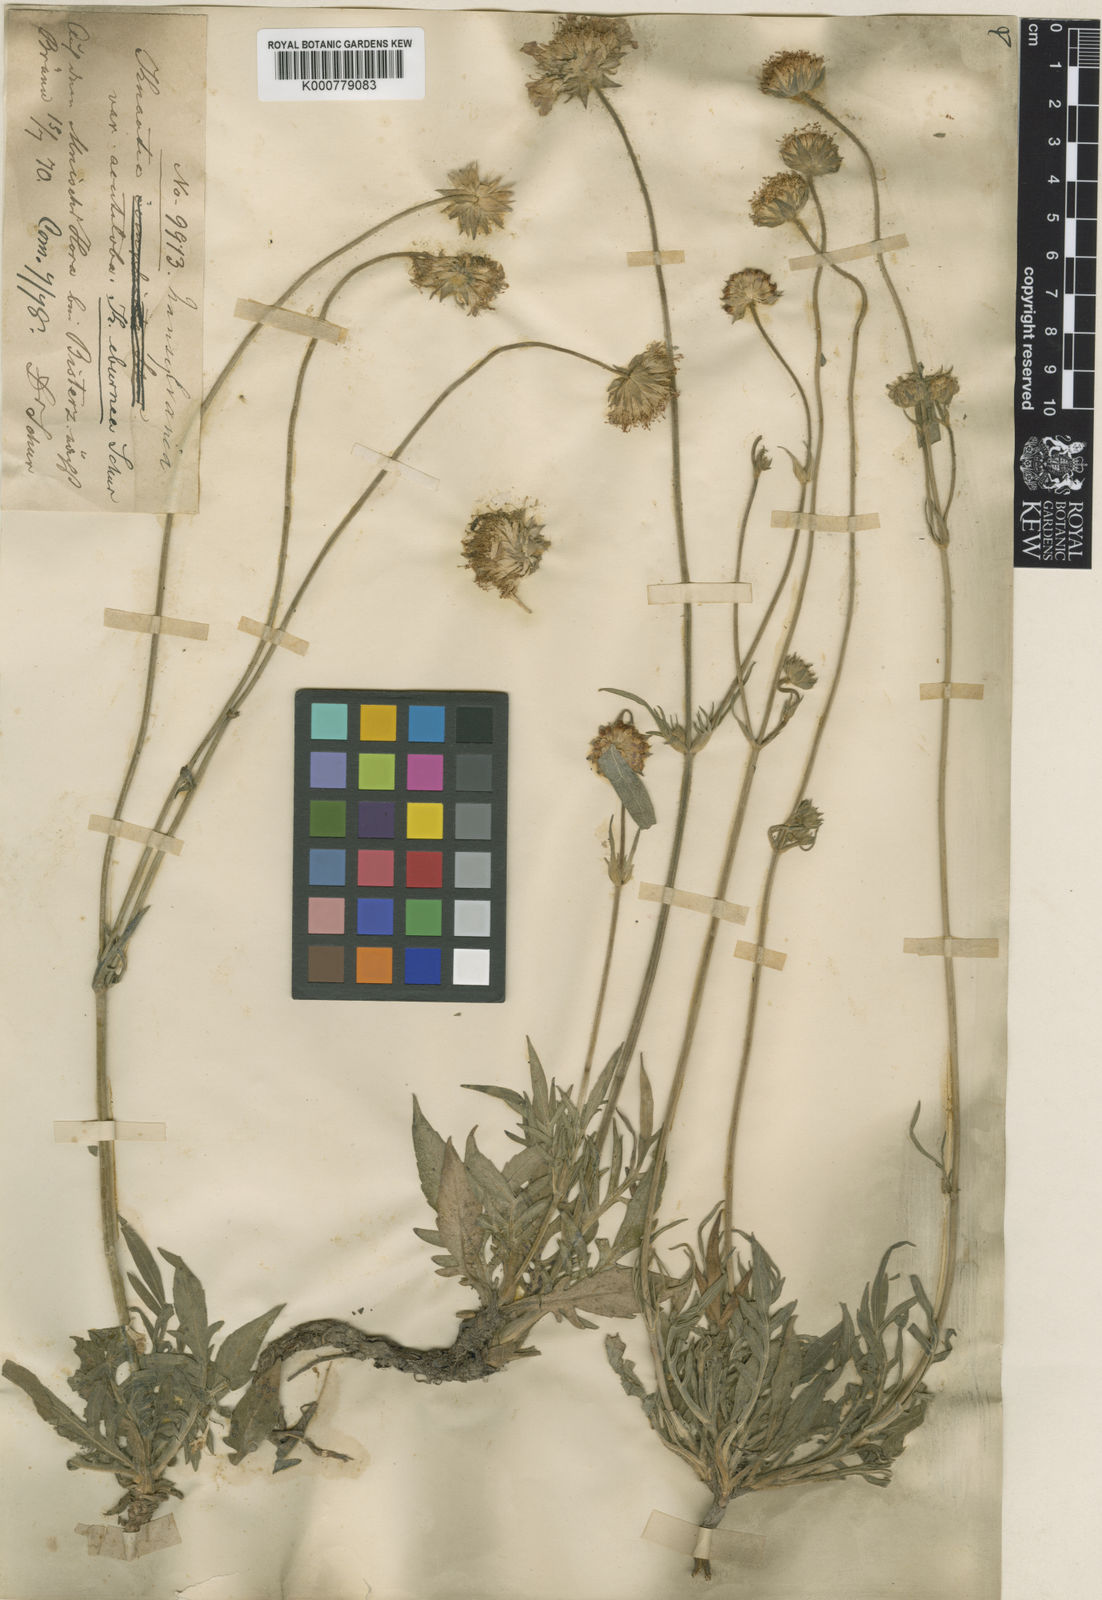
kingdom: Plantae
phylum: Tracheophyta
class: Magnoliopsida
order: Dipsacales
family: Caprifoliaceae
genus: Knautia
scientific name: Knautia dinarica
